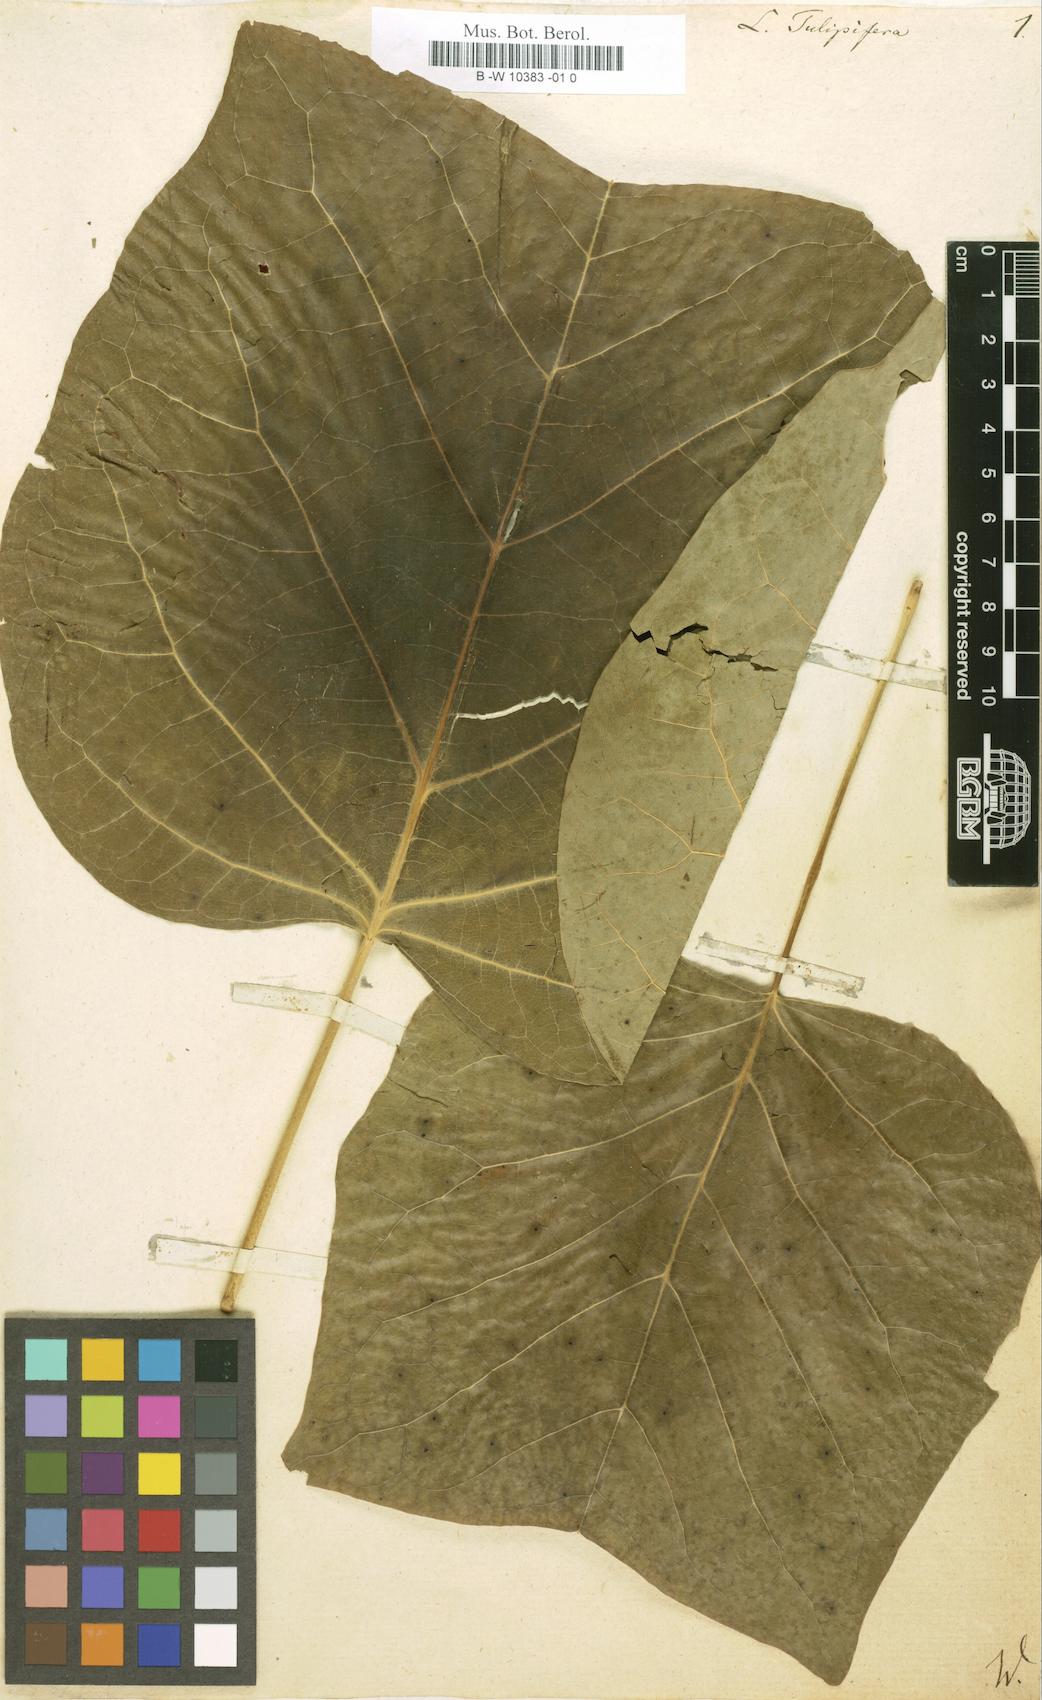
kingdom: Plantae
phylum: Tracheophyta
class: Magnoliopsida
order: Magnoliales
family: Magnoliaceae
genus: Liriodendron
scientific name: Liriodendron tulipifera
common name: Tulip tree
